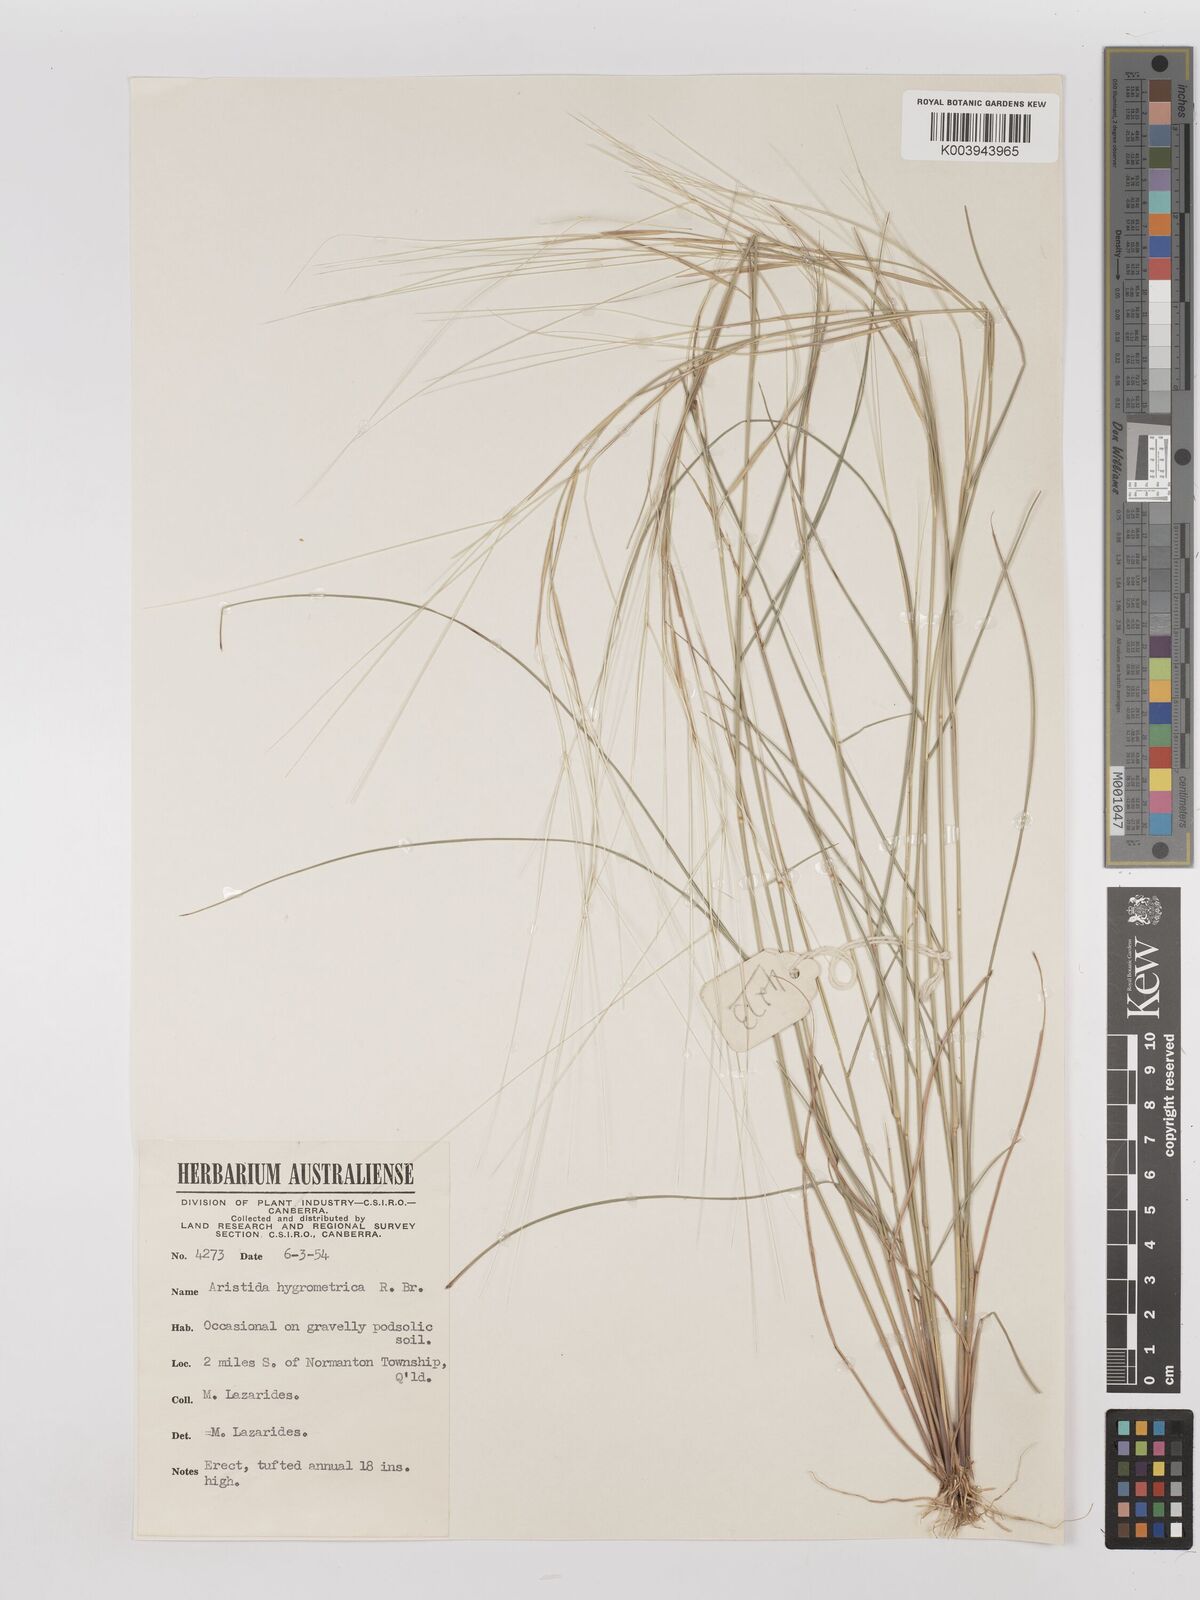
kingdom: Plantae
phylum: Tracheophyta
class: Liliopsida
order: Poales
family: Poaceae
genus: Aristida
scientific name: Aristida hygrometrica
